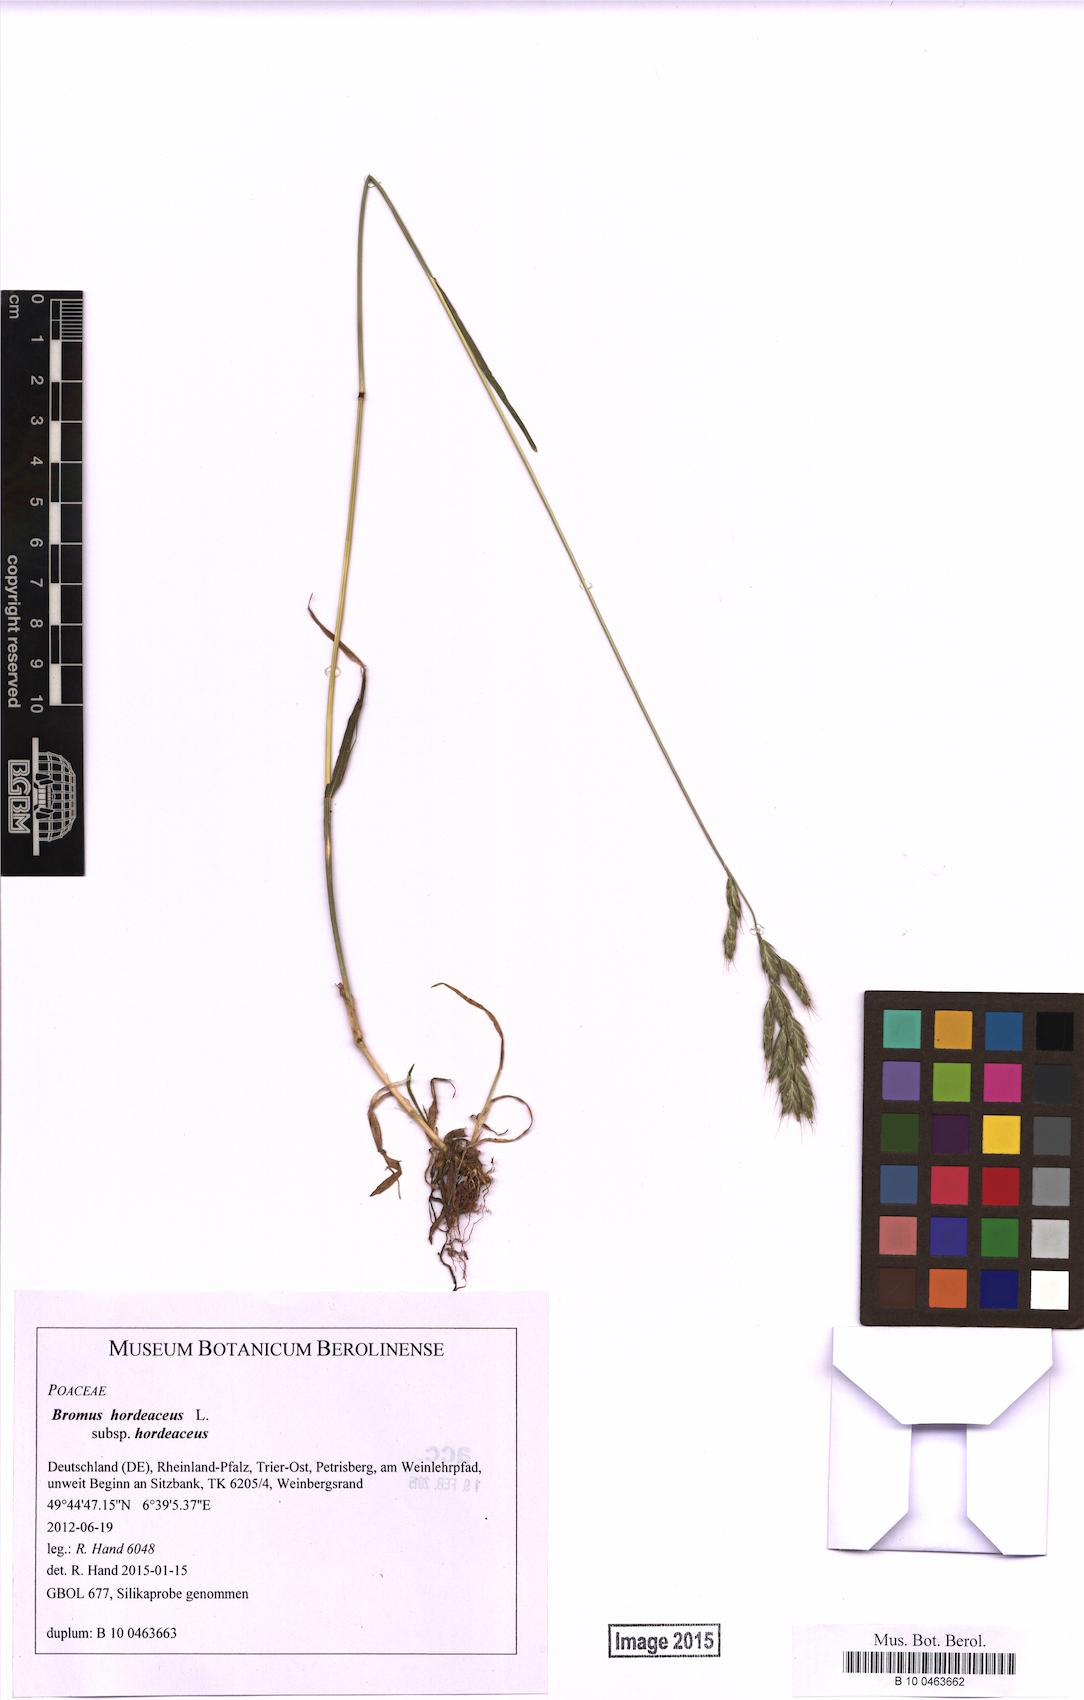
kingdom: Plantae
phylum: Tracheophyta
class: Liliopsida
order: Poales
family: Poaceae
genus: Bromus
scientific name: Bromus hordeaceus
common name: Soft brome
